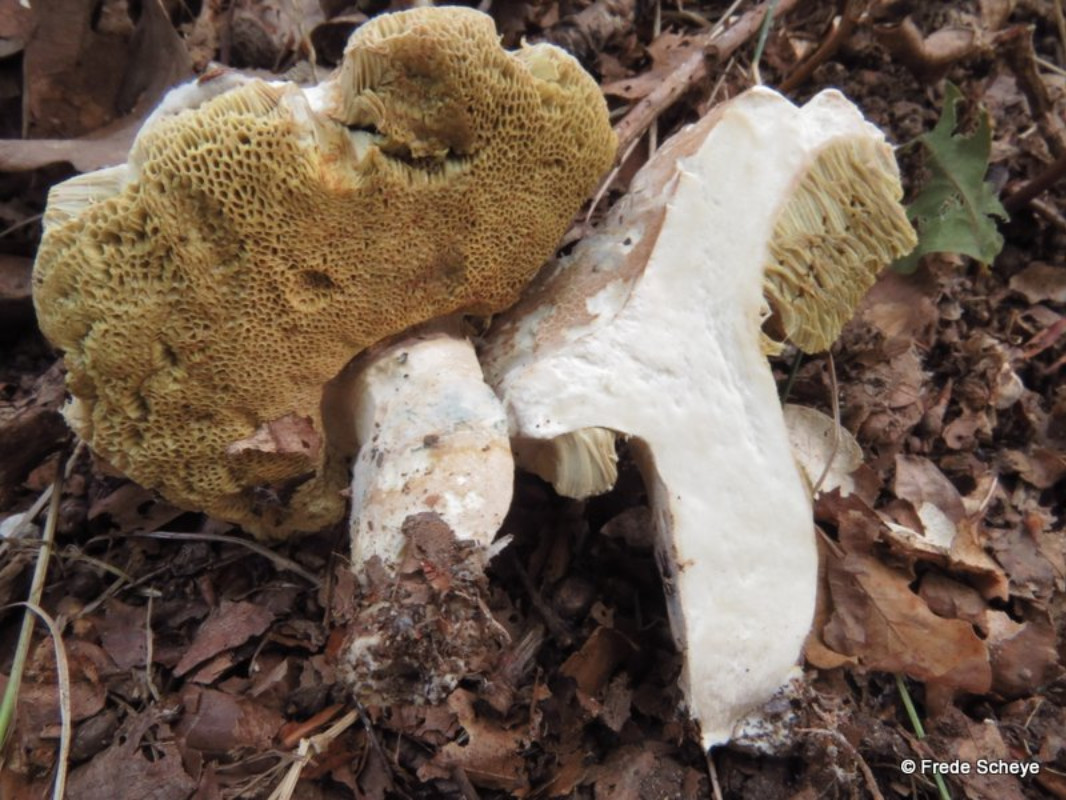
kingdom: Fungi
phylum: Basidiomycota
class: Agaricomycetes
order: Boletales
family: Boletaceae
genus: Boletus
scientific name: Boletus reticulatus
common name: sommer-rørhat
